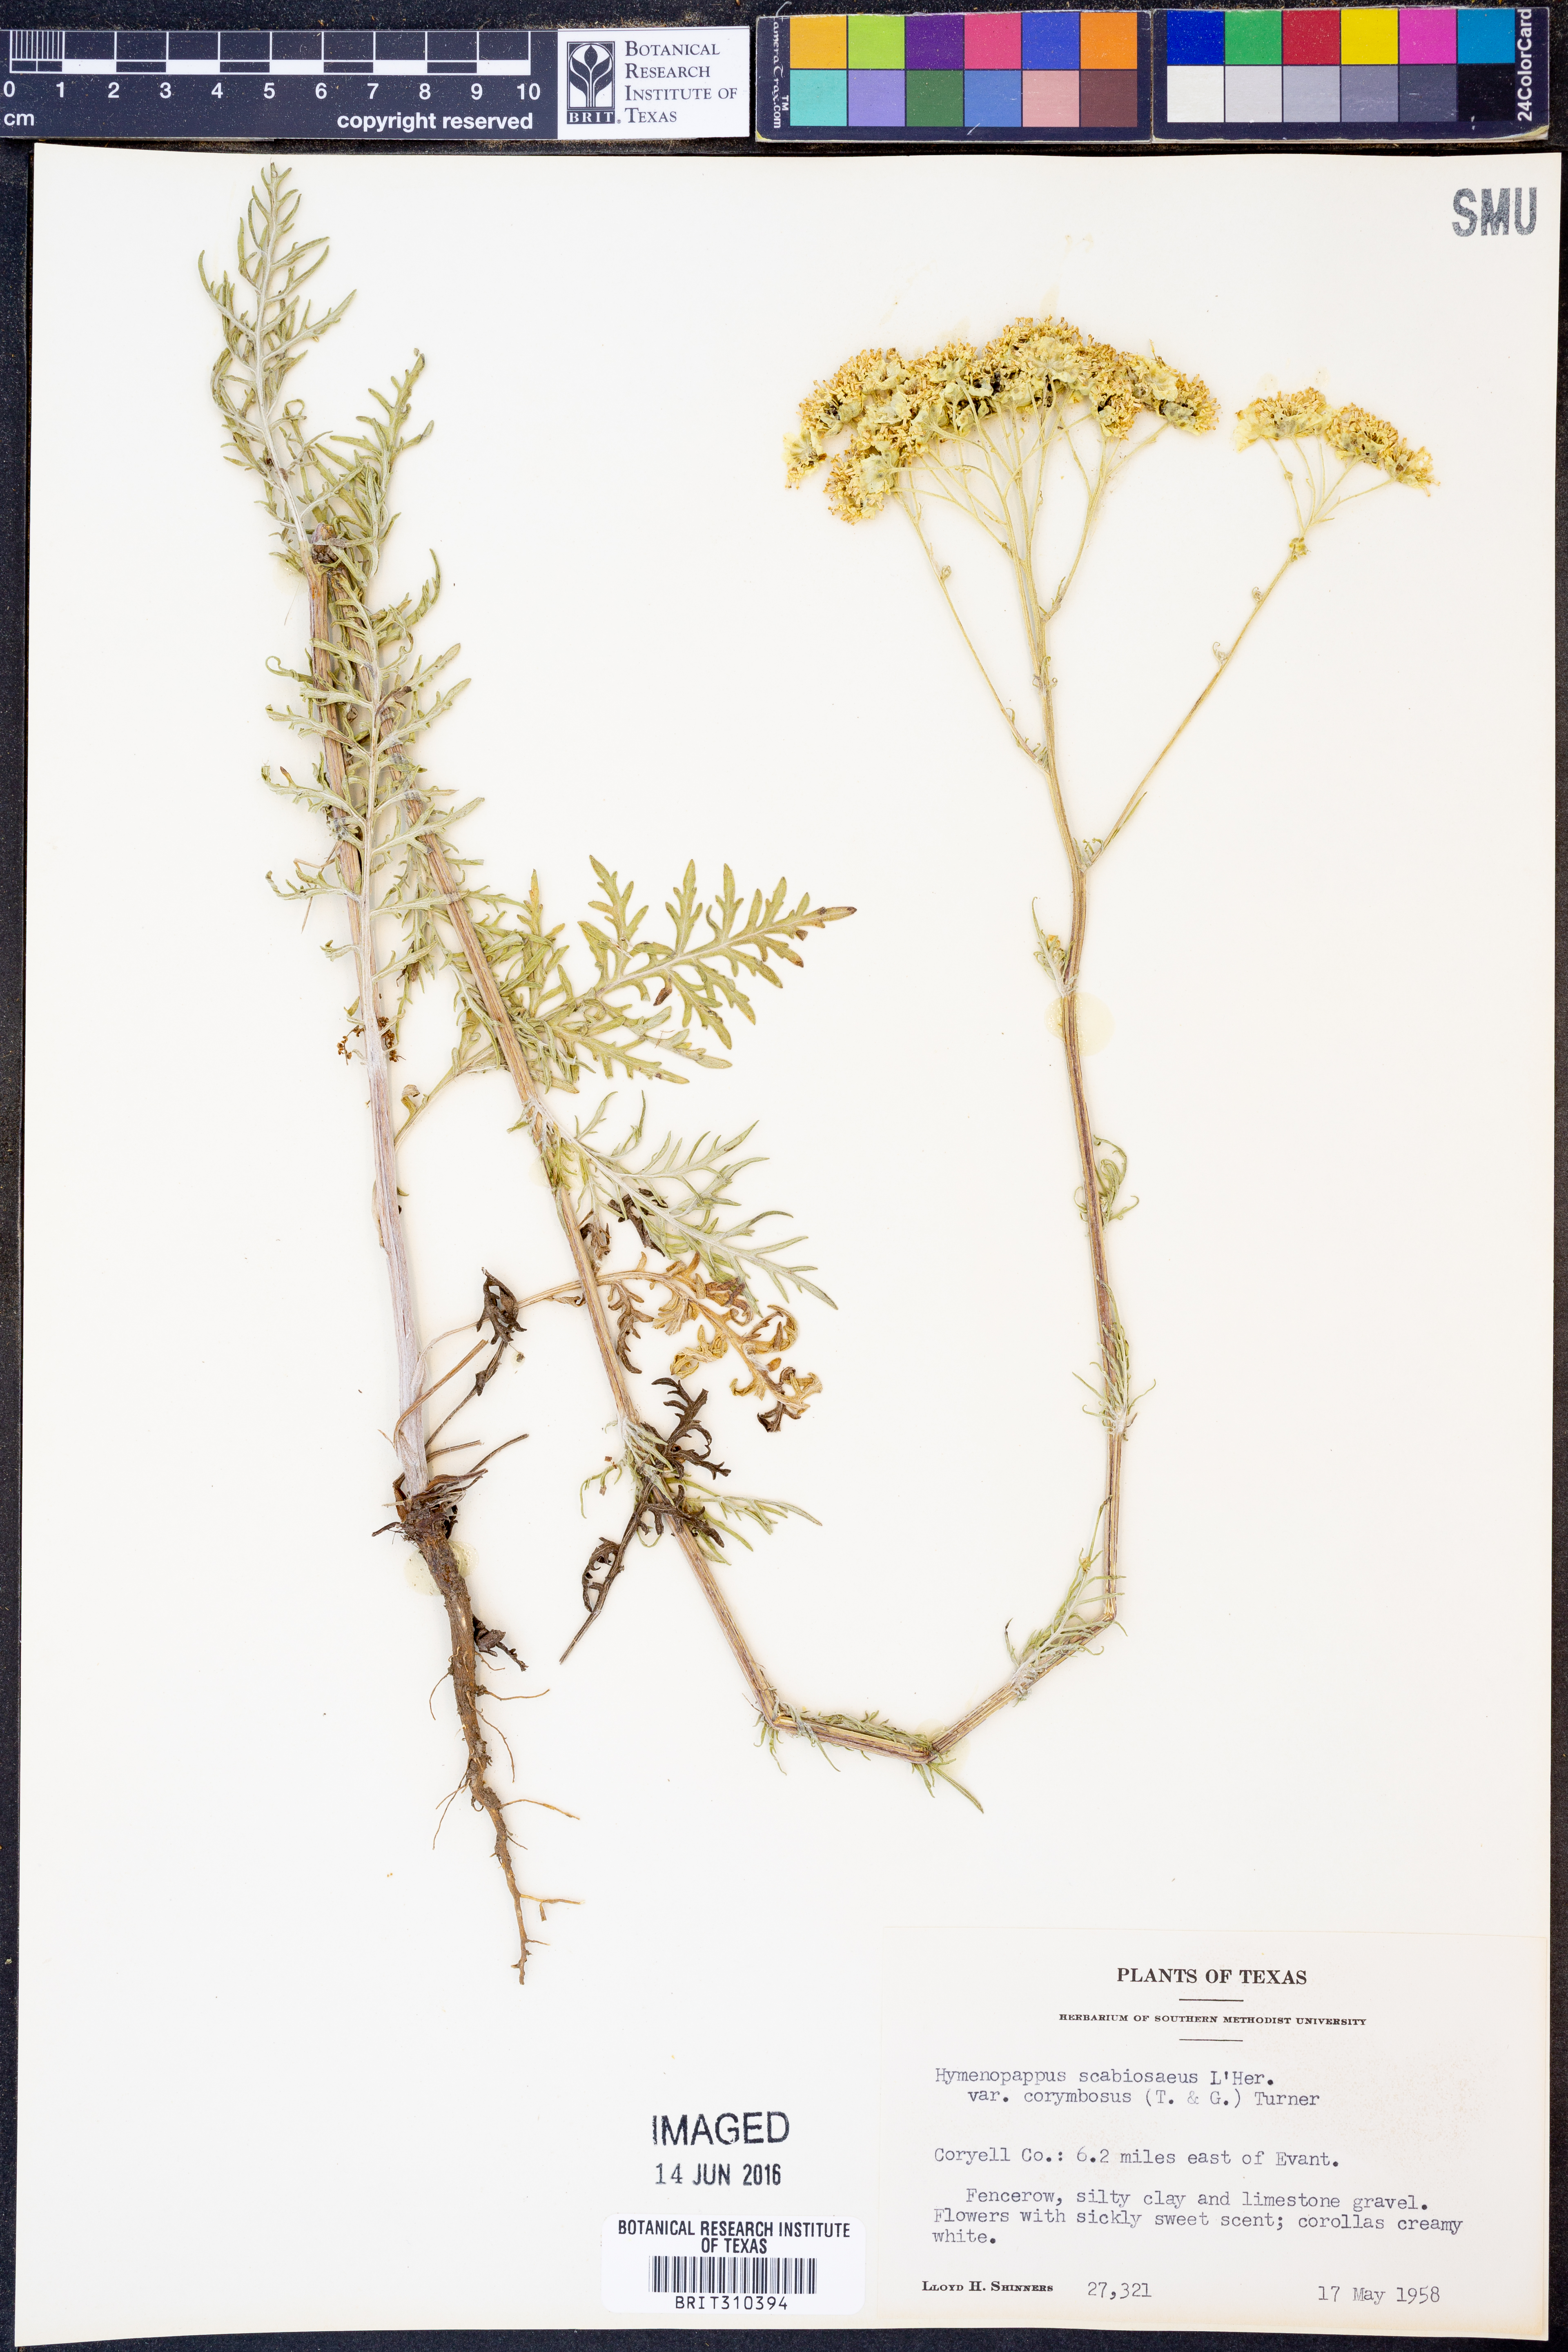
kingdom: Plantae
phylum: Tracheophyta
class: Magnoliopsida
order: Asterales
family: Asteraceae
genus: Hymenopappus
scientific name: Hymenopappus scabiosaeus
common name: Carolina woollywhite
